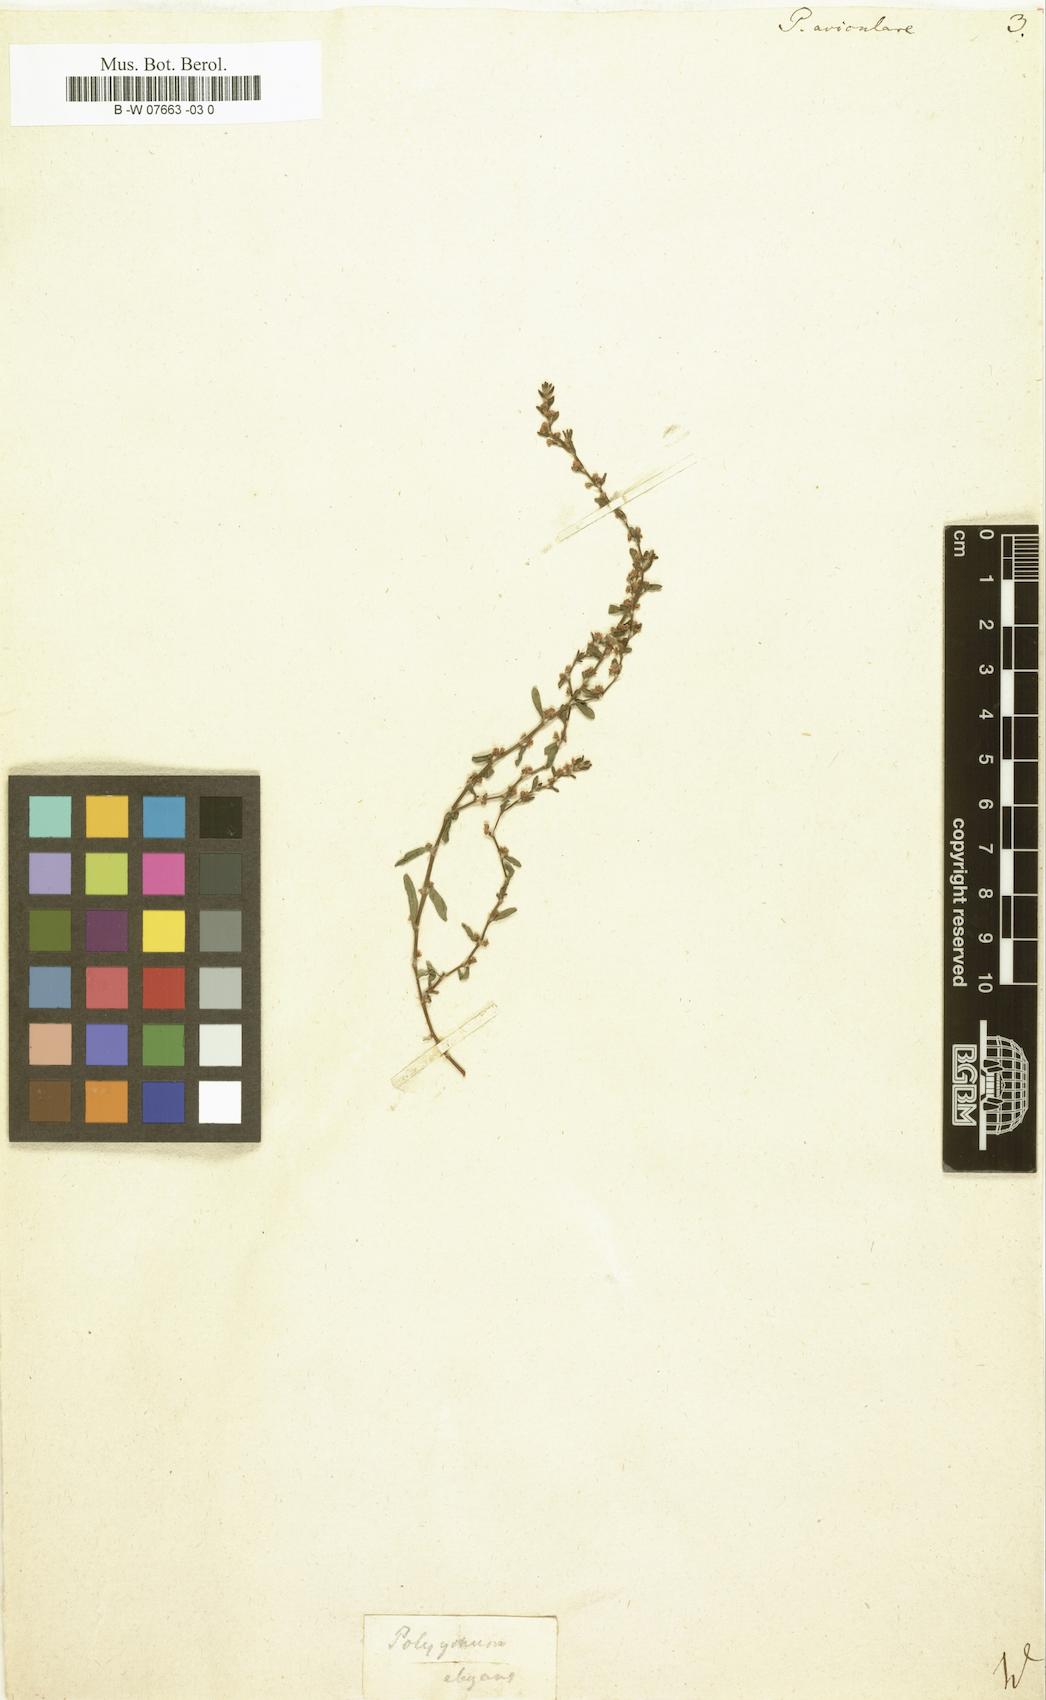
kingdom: Plantae
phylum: Tracheophyta
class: Magnoliopsida
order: Caryophyllales
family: Polygonaceae
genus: Polygonum
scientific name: Polygonum aviculare
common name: Prostrate knotweed
